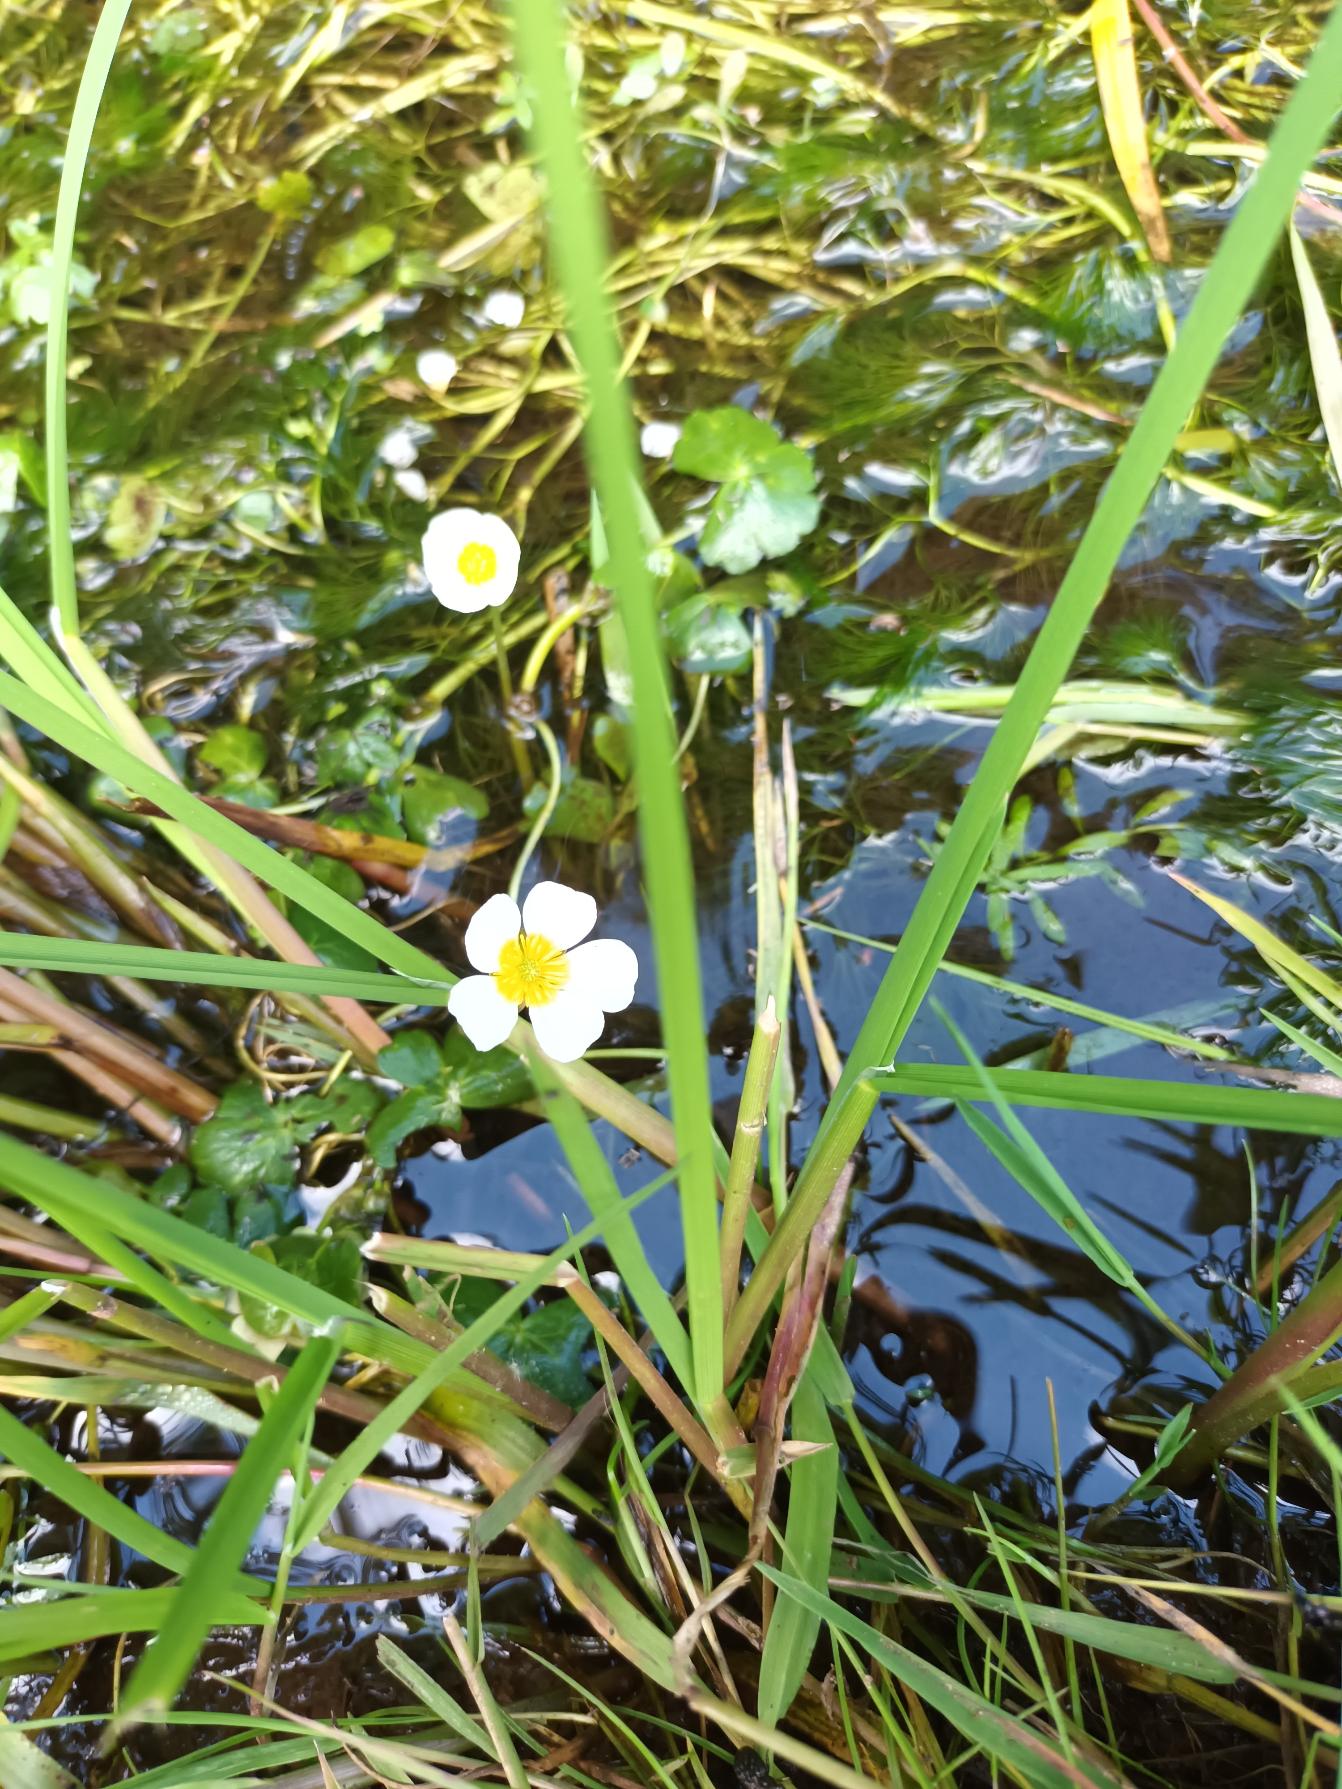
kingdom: Plantae
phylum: Tracheophyta
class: Magnoliopsida
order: Ranunculales
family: Ranunculaceae
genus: Ranunculus
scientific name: Ranunculus peltatus
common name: Storblomstret vandranunkel
